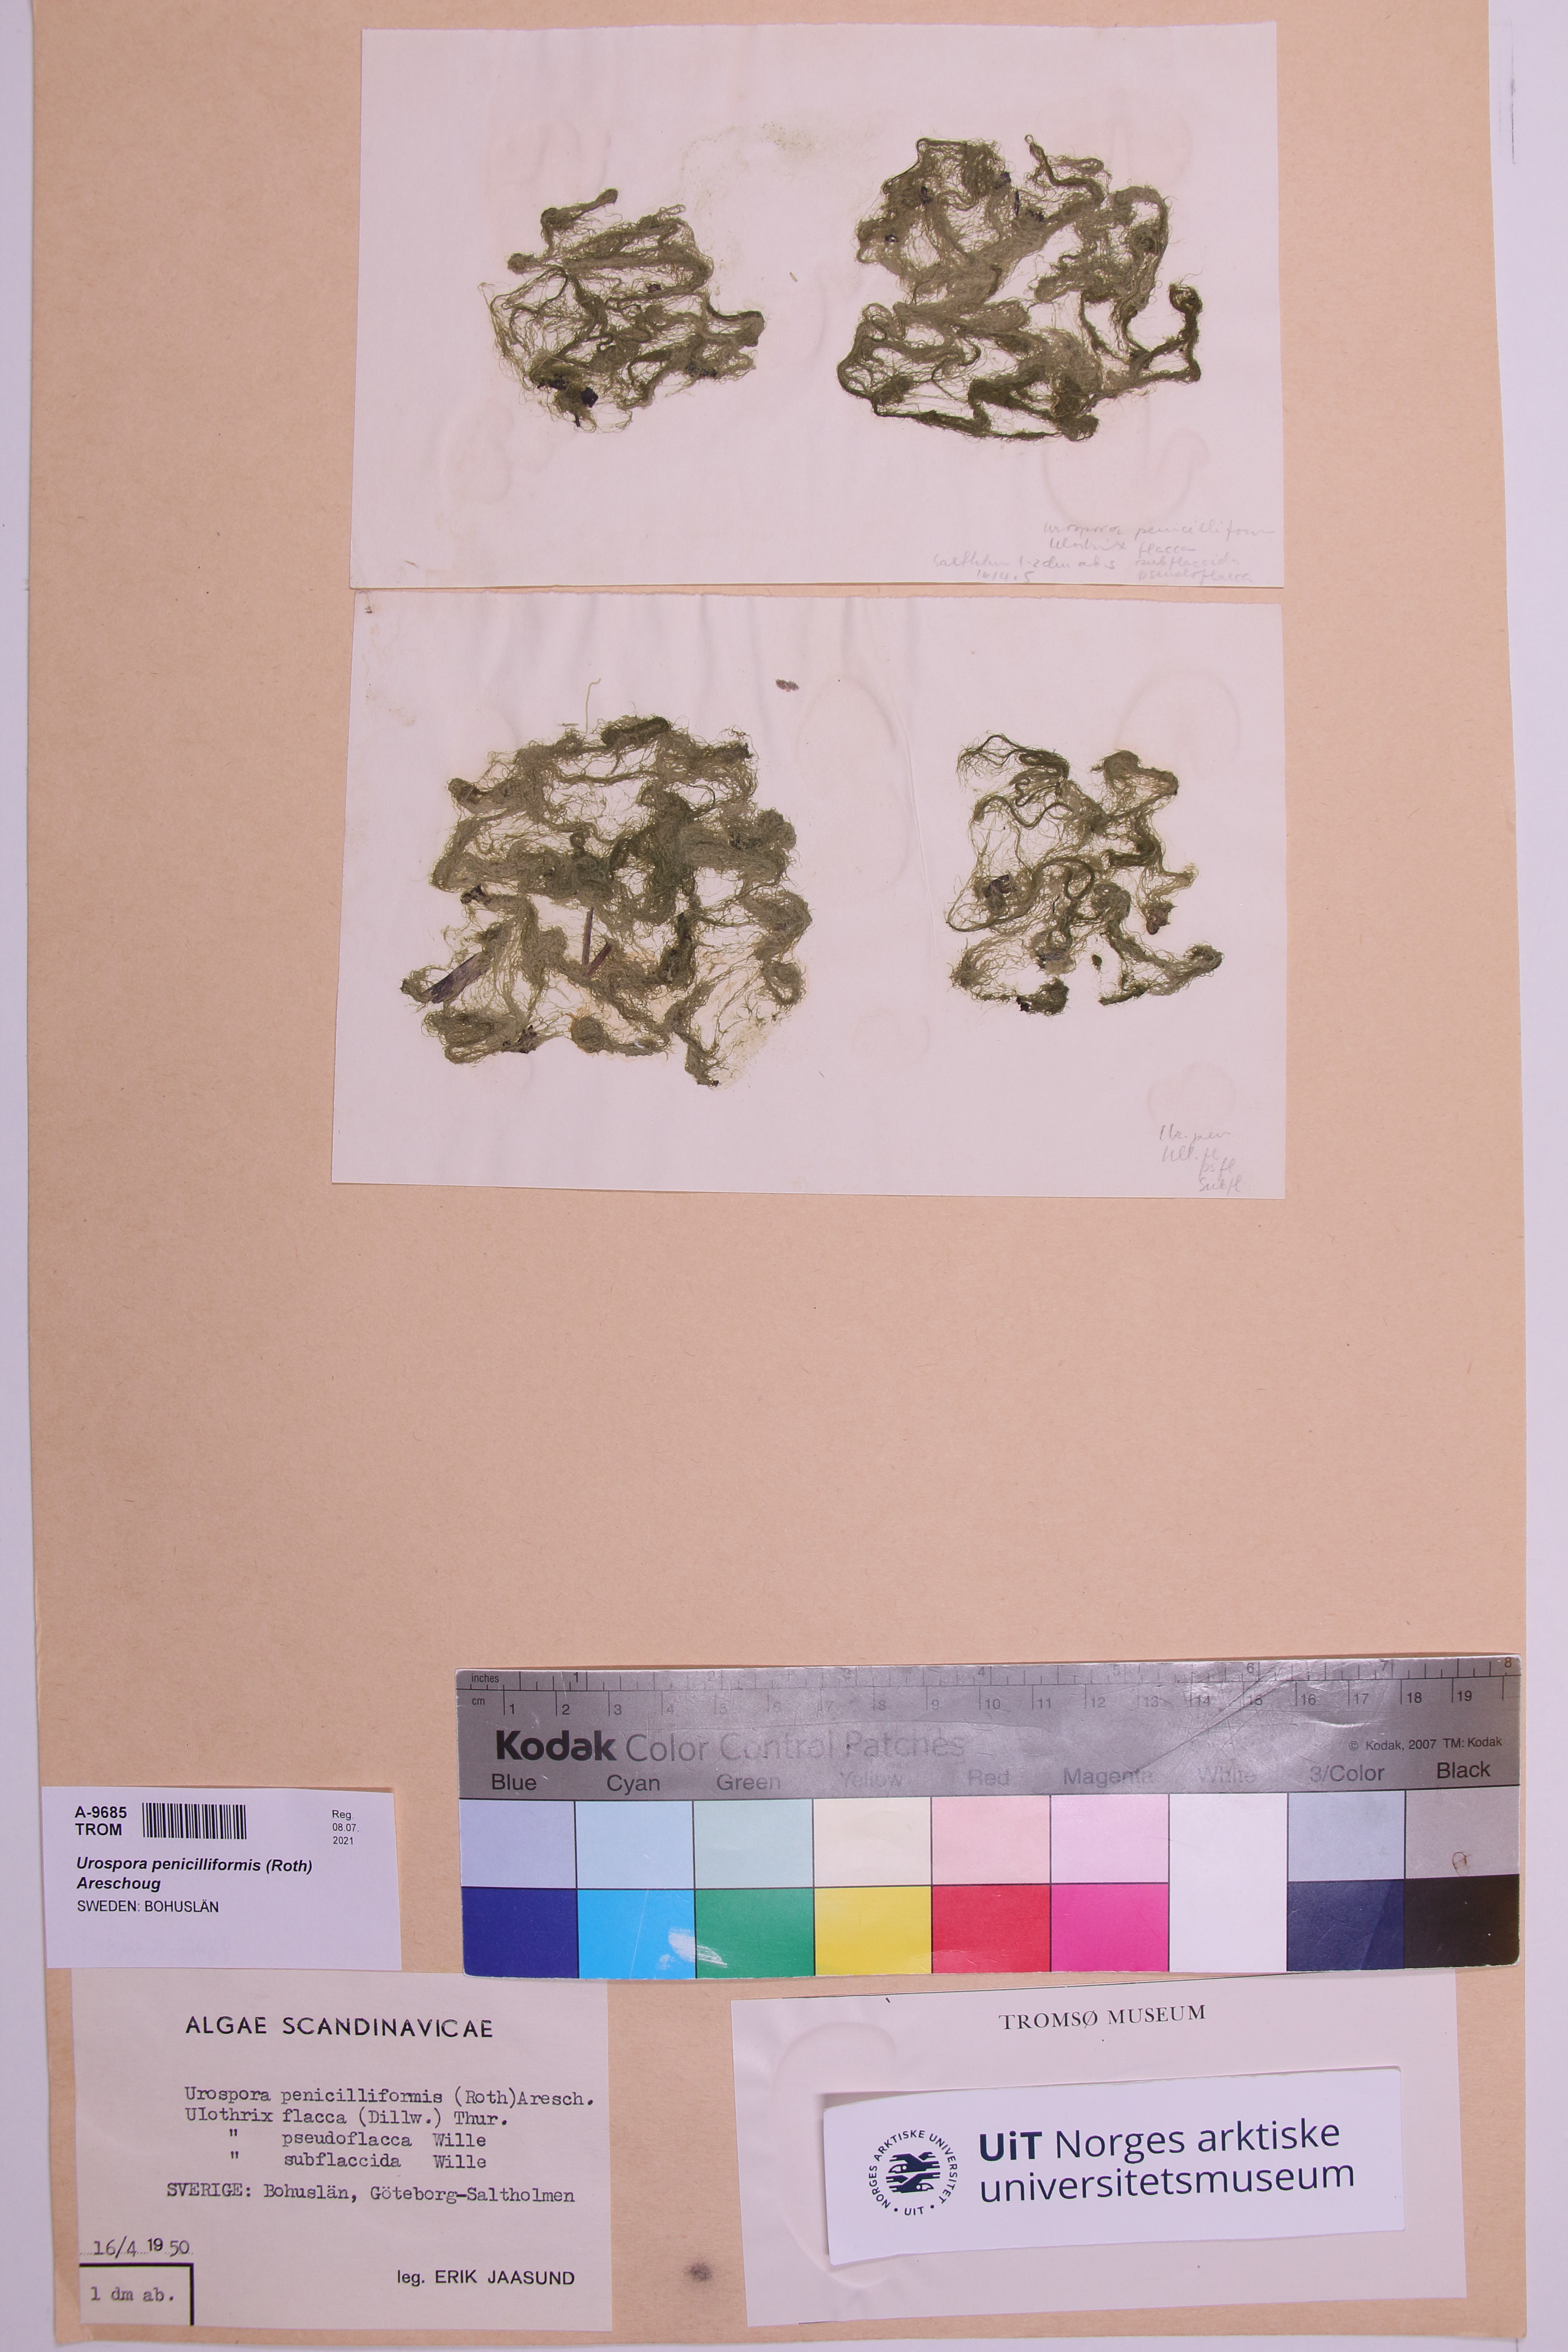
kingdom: Plantae
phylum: Chlorophyta
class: Ulvophyceae
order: Ulotrichales
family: Ulotrichaceae
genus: Urospora
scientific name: Urospora penicilliformis
